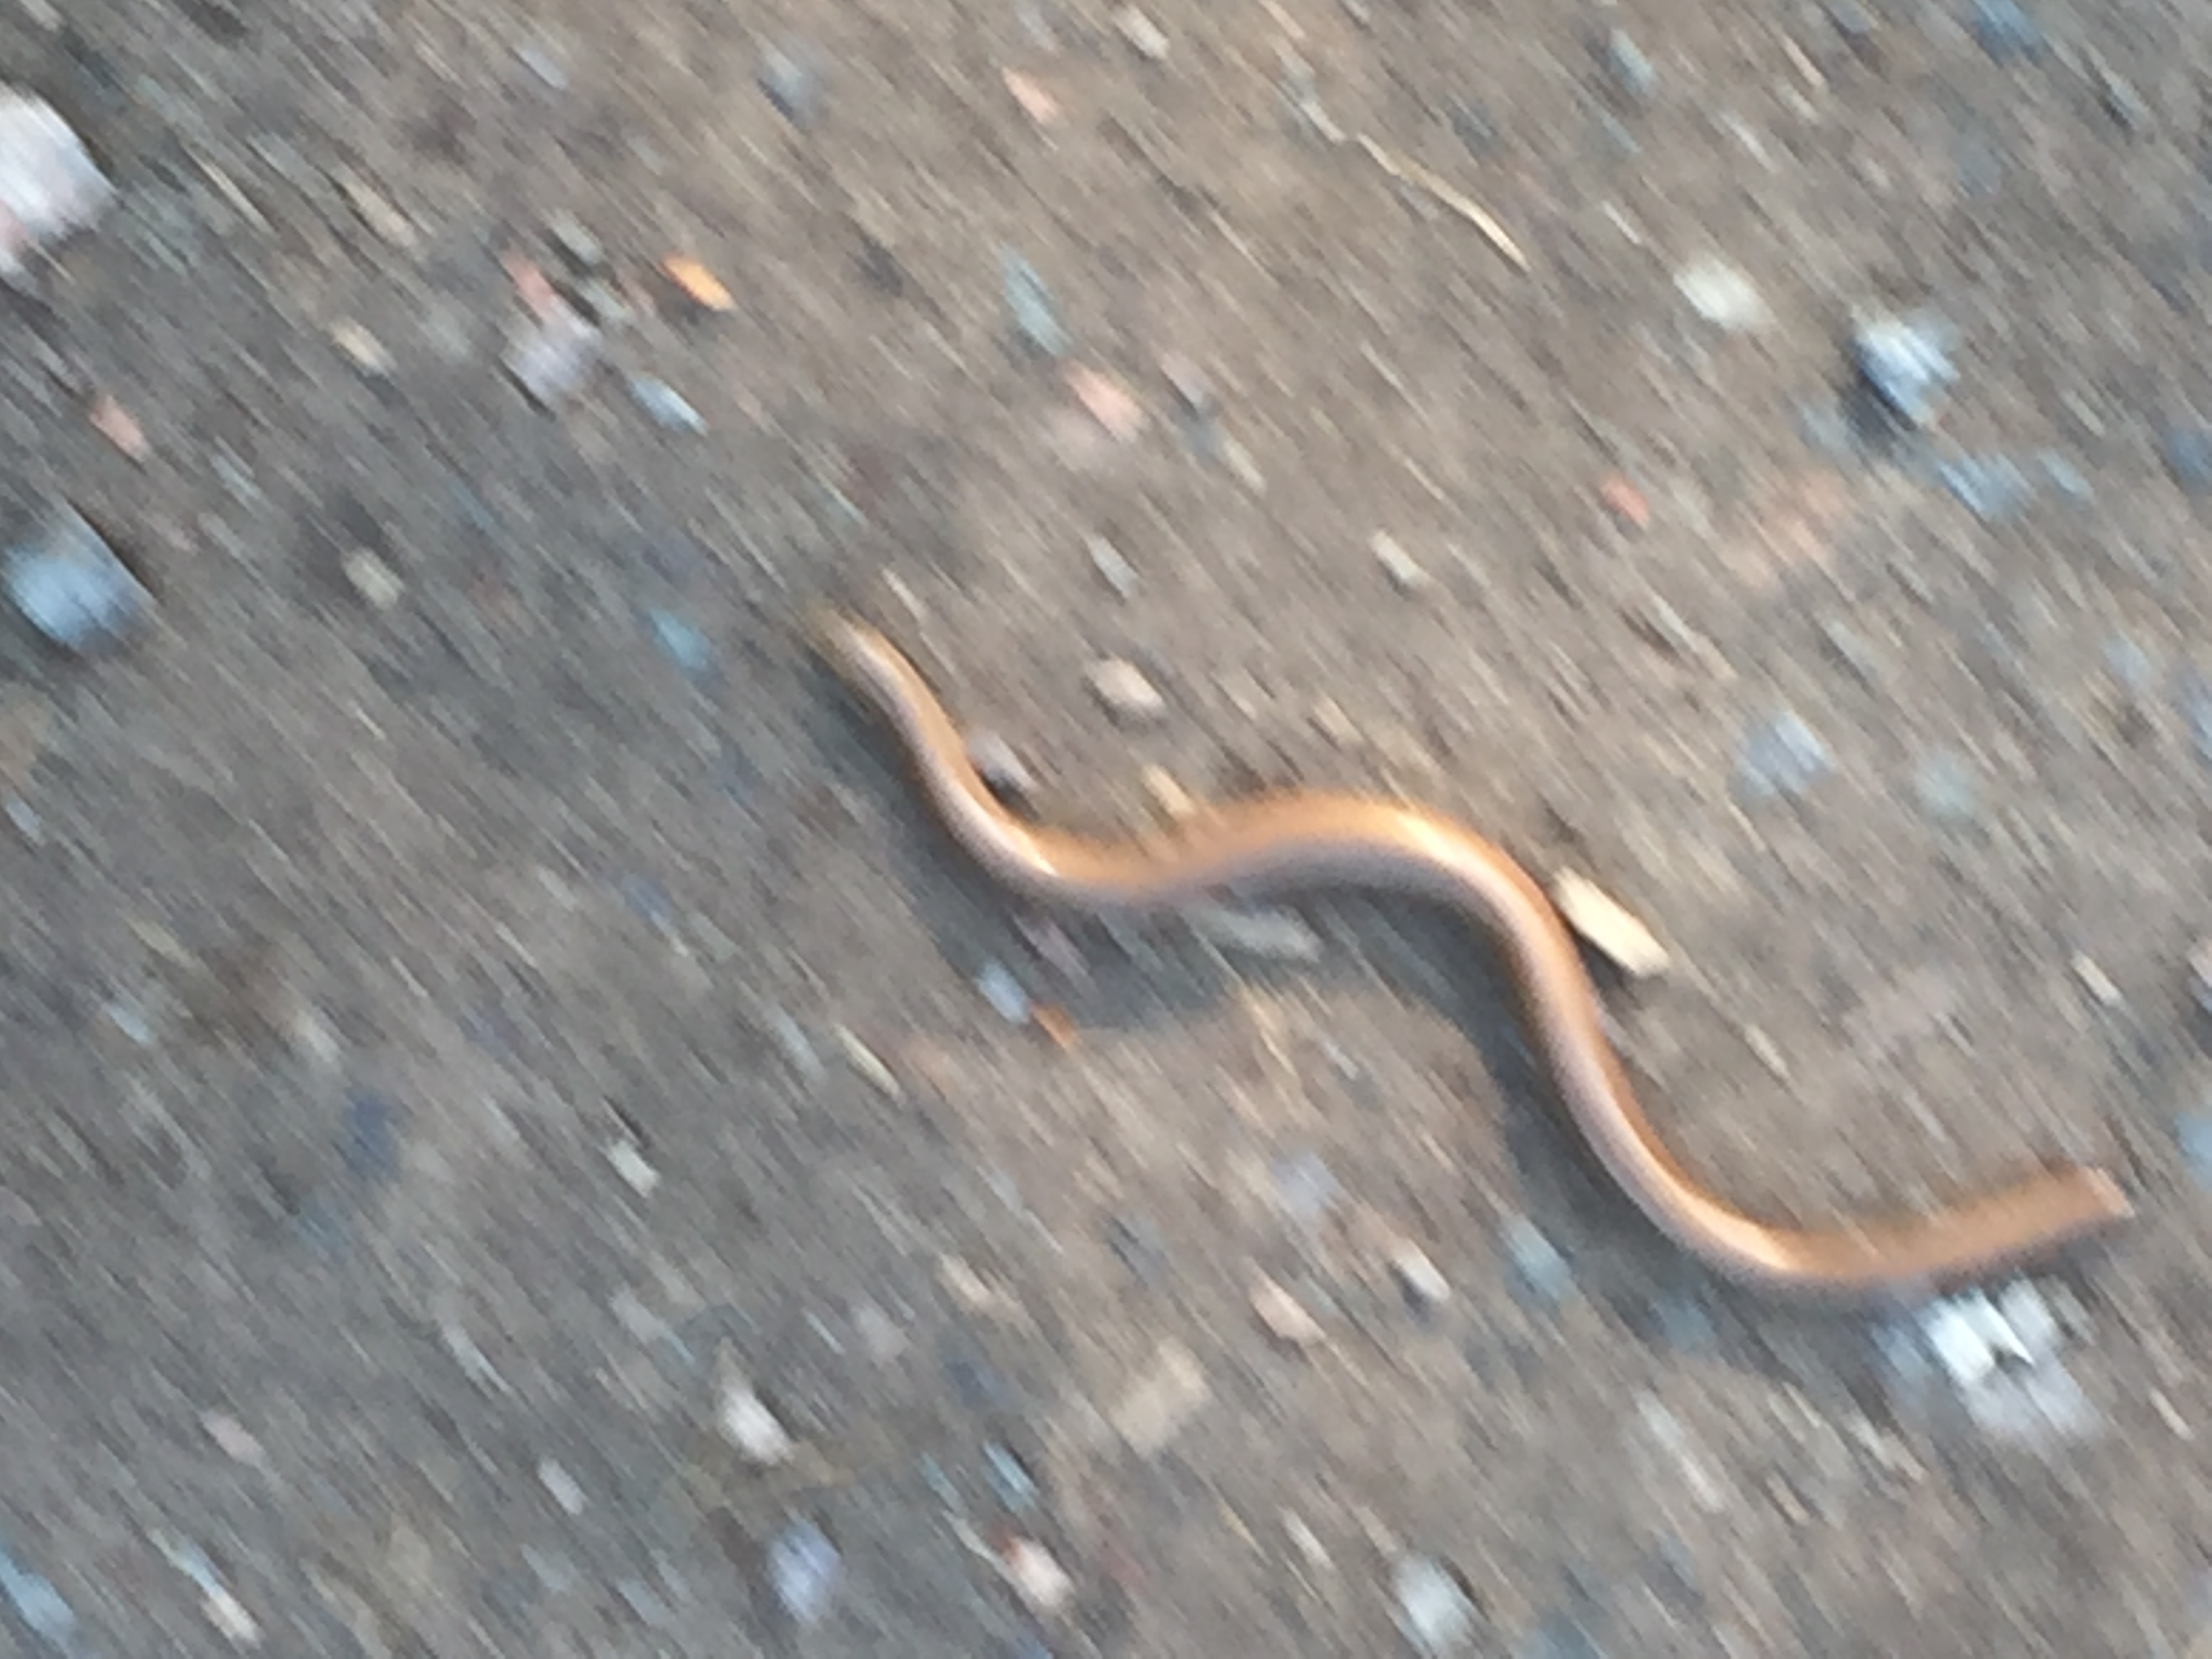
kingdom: Animalia
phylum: Chordata
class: Squamata
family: Anguidae
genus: Anguis
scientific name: Anguis colchica
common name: Slow worm
